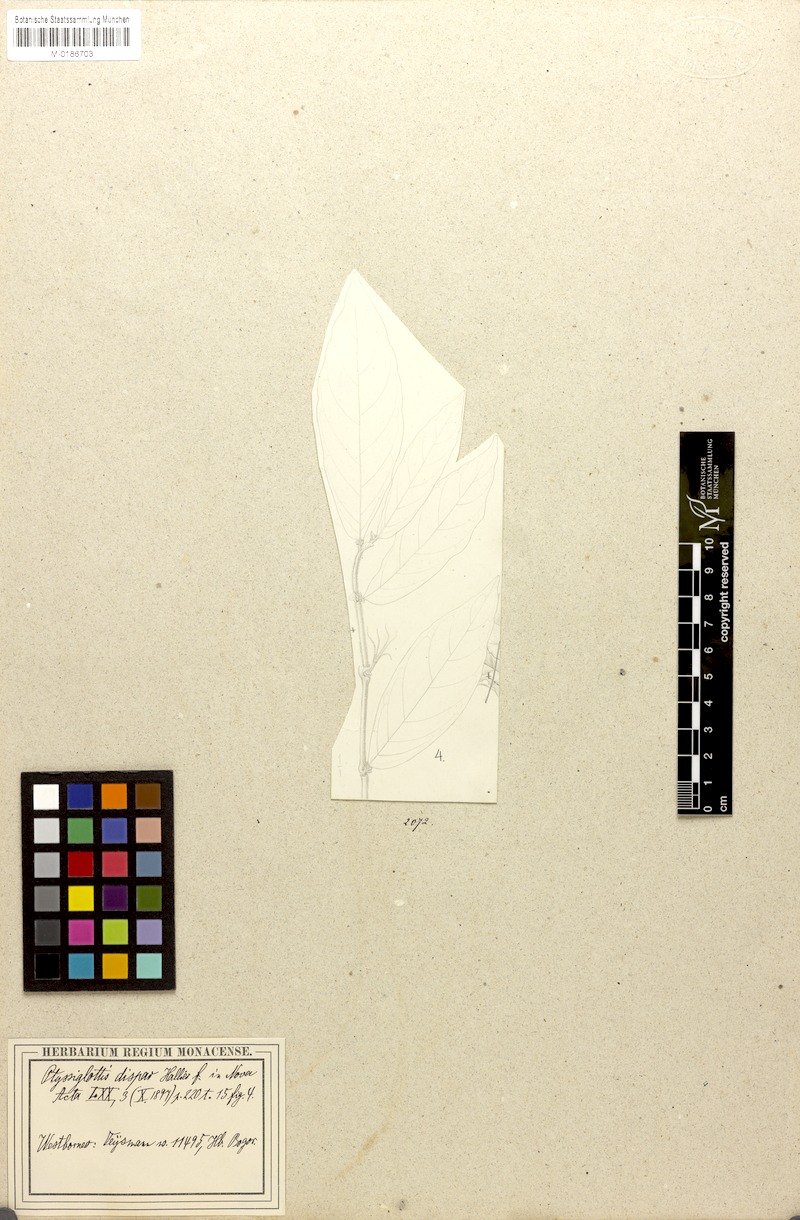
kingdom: Plantae
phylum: Tracheophyta
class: Magnoliopsida
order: Lamiales
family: Acanthaceae
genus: Justicia
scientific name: Justicia pulgarensis
